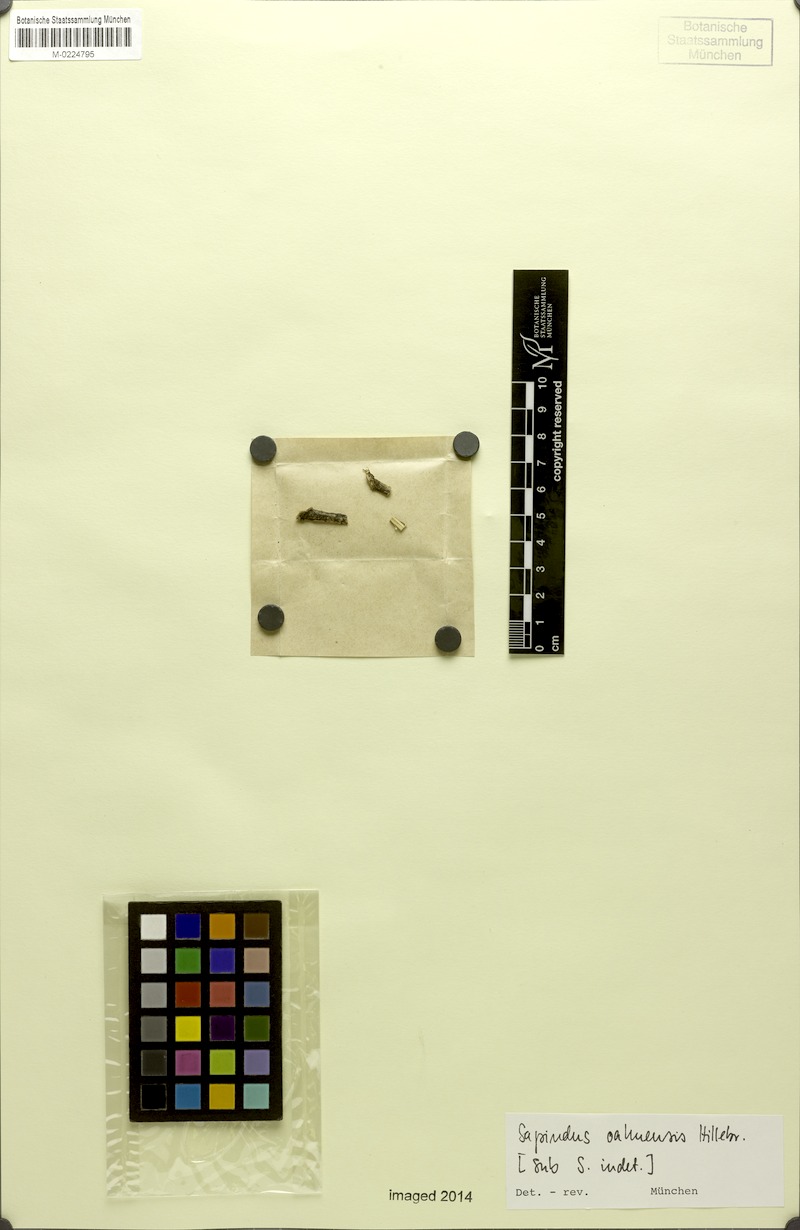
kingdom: Plantae
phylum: Tracheophyta
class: Magnoliopsida
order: Sapindales
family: Sapindaceae
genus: Sapindus
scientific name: Sapindus oahuensis
